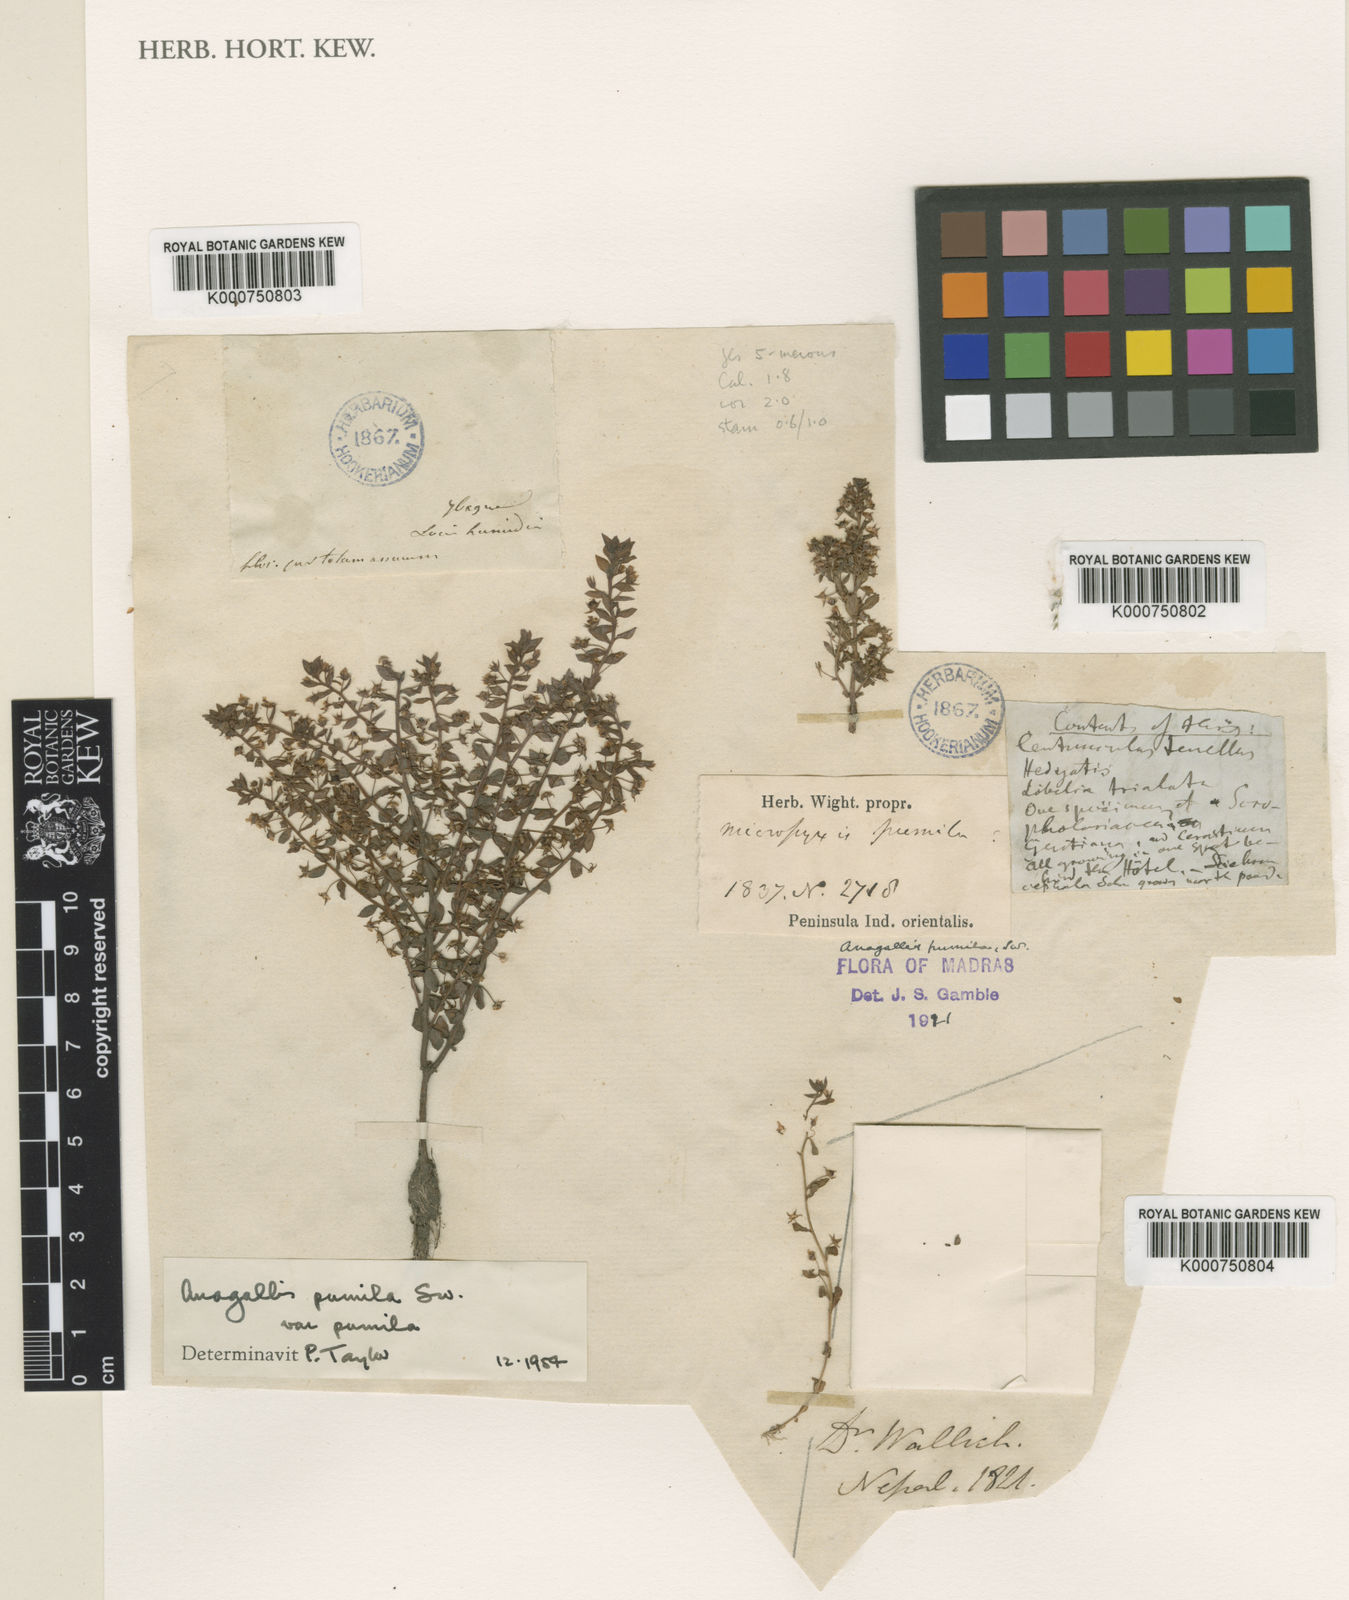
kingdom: Plantae
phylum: Tracheophyta
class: Magnoliopsida
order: Ericales
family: Primulaceae
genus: Lysimachia
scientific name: Lysimachia ovalis
